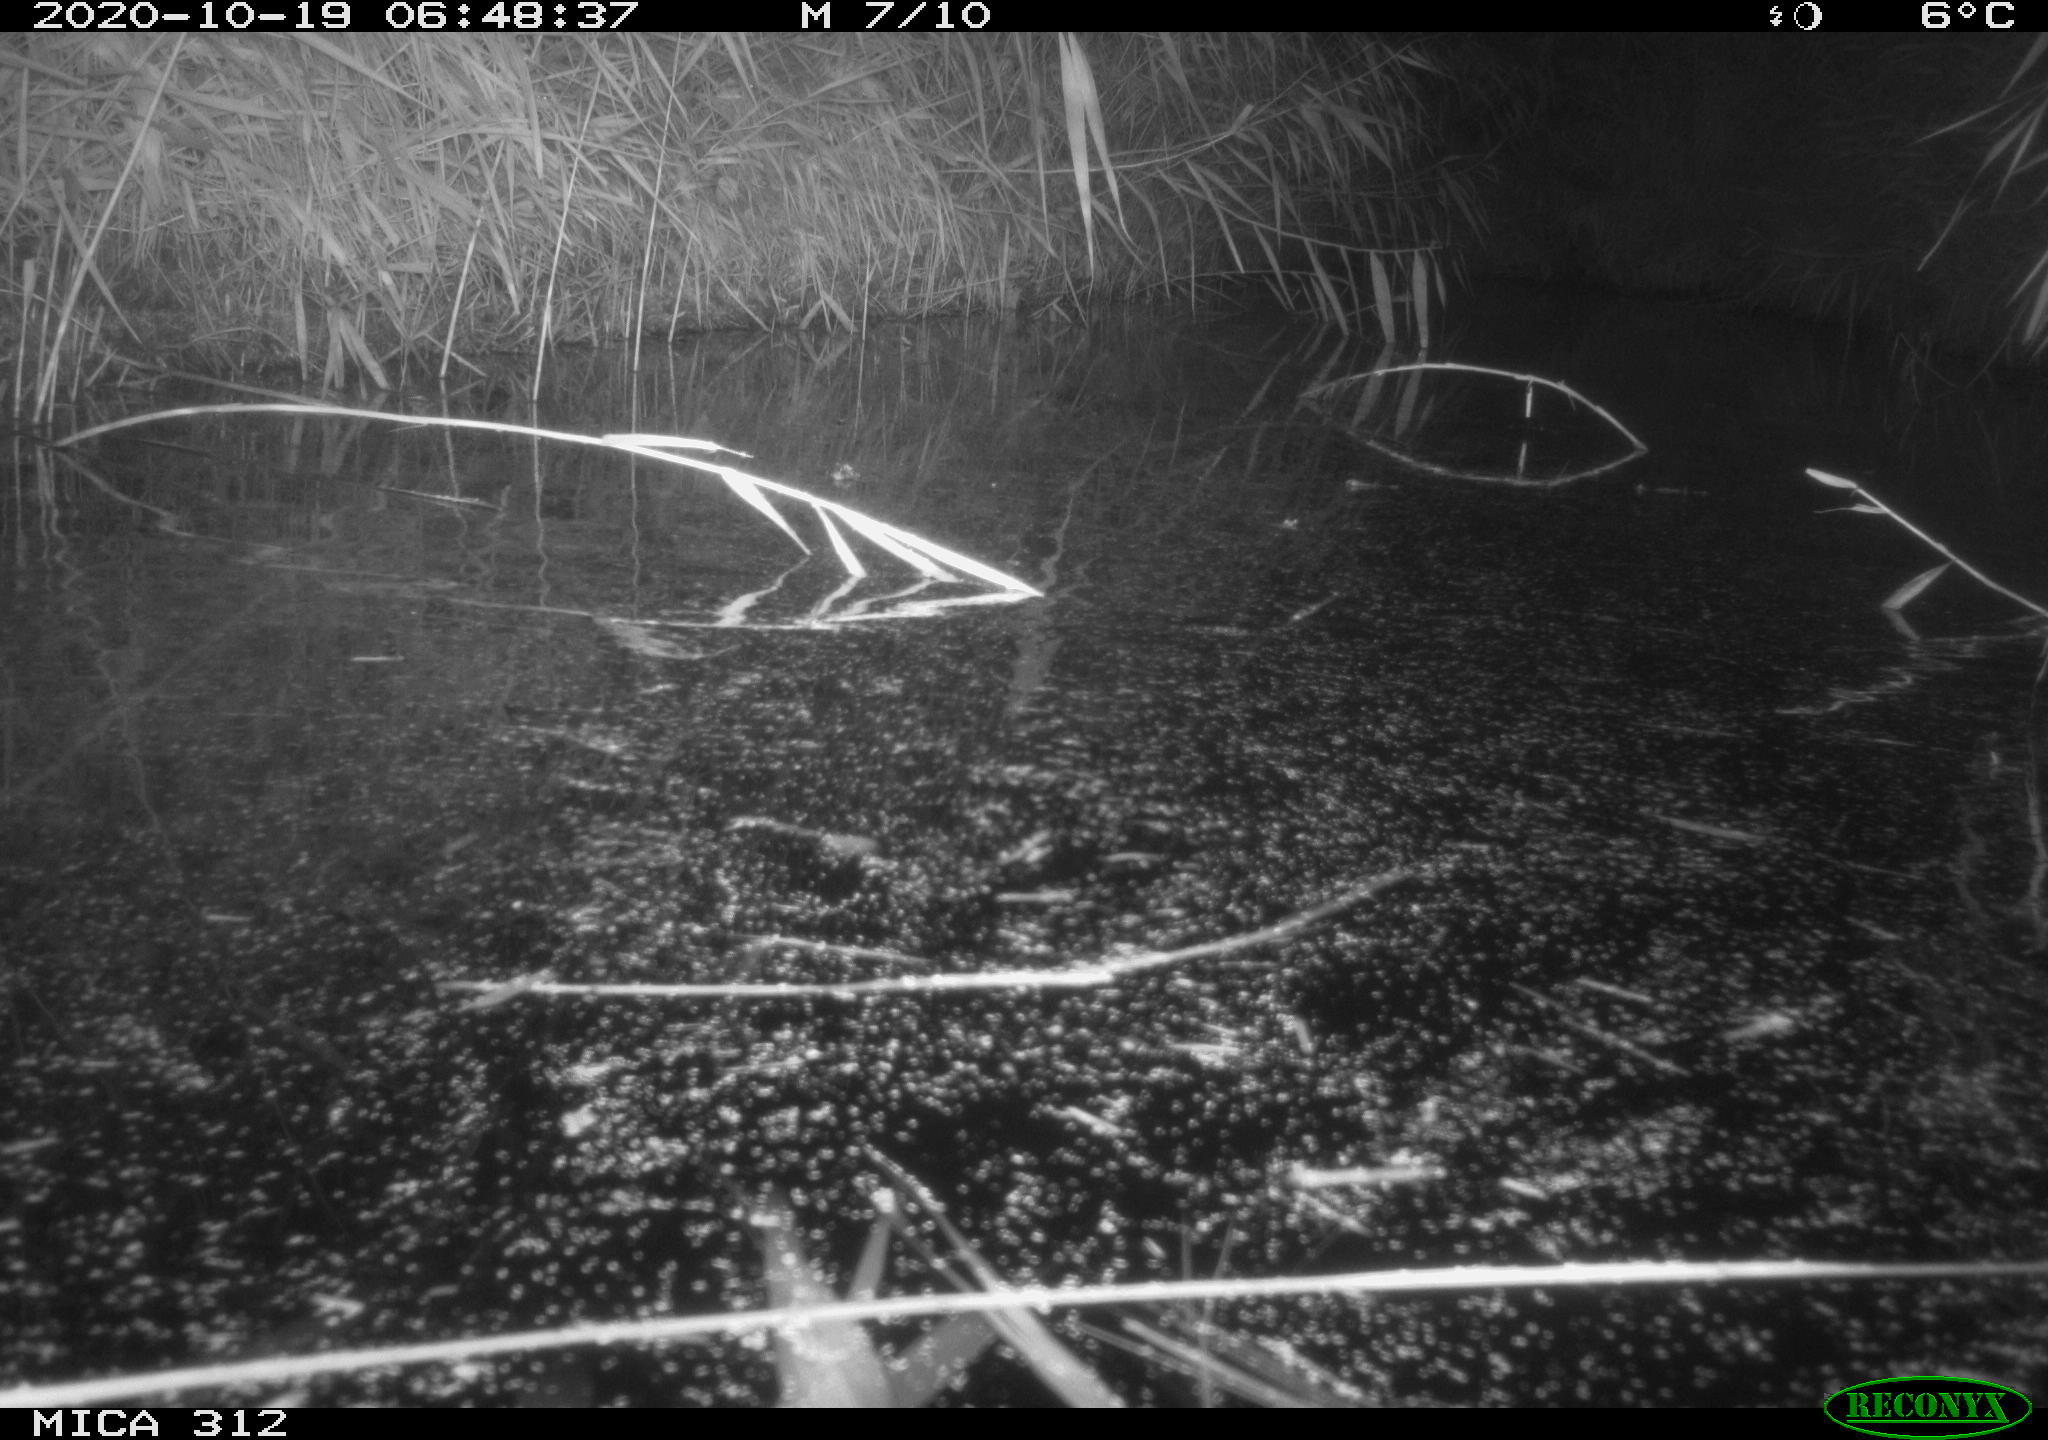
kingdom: Animalia
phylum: Chordata
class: Mammalia
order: Rodentia
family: Muridae
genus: Rattus
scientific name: Rattus norvegicus
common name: Brown rat
